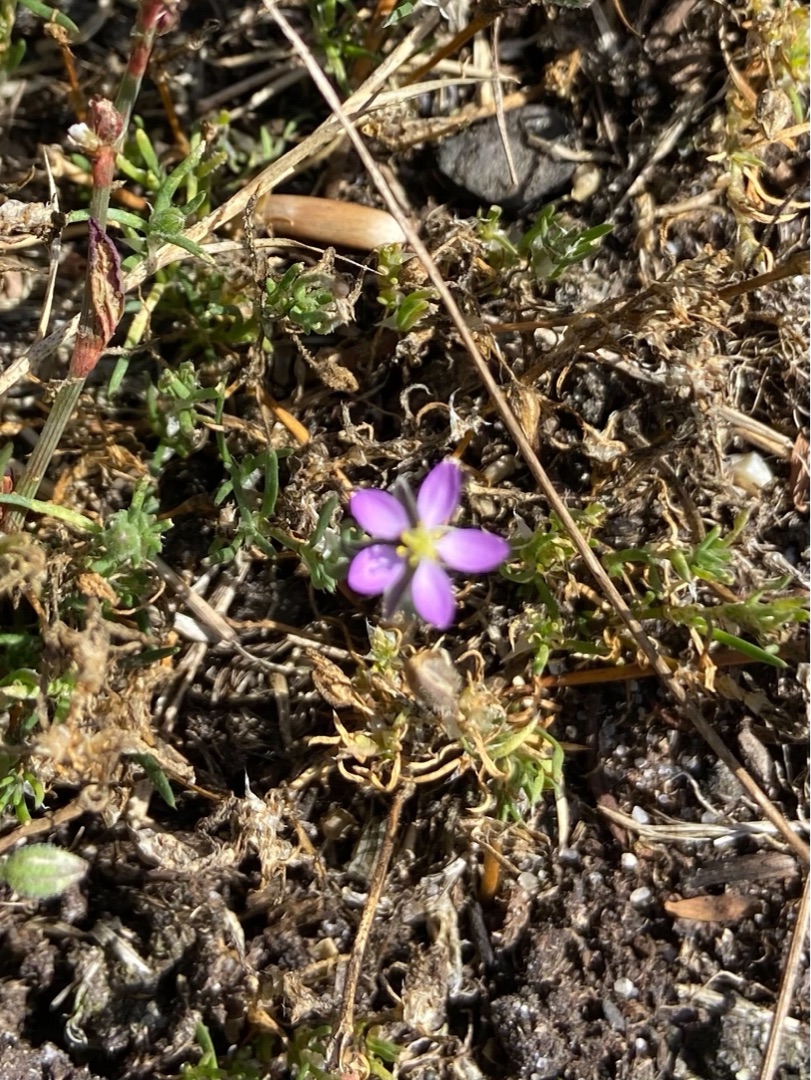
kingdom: Plantae
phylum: Tracheophyta
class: Magnoliopsida
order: Caryophyllales
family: Caryophyllaceae
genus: Spergularia
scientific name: Spergularia rubra
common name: Mark-hindeknæ
